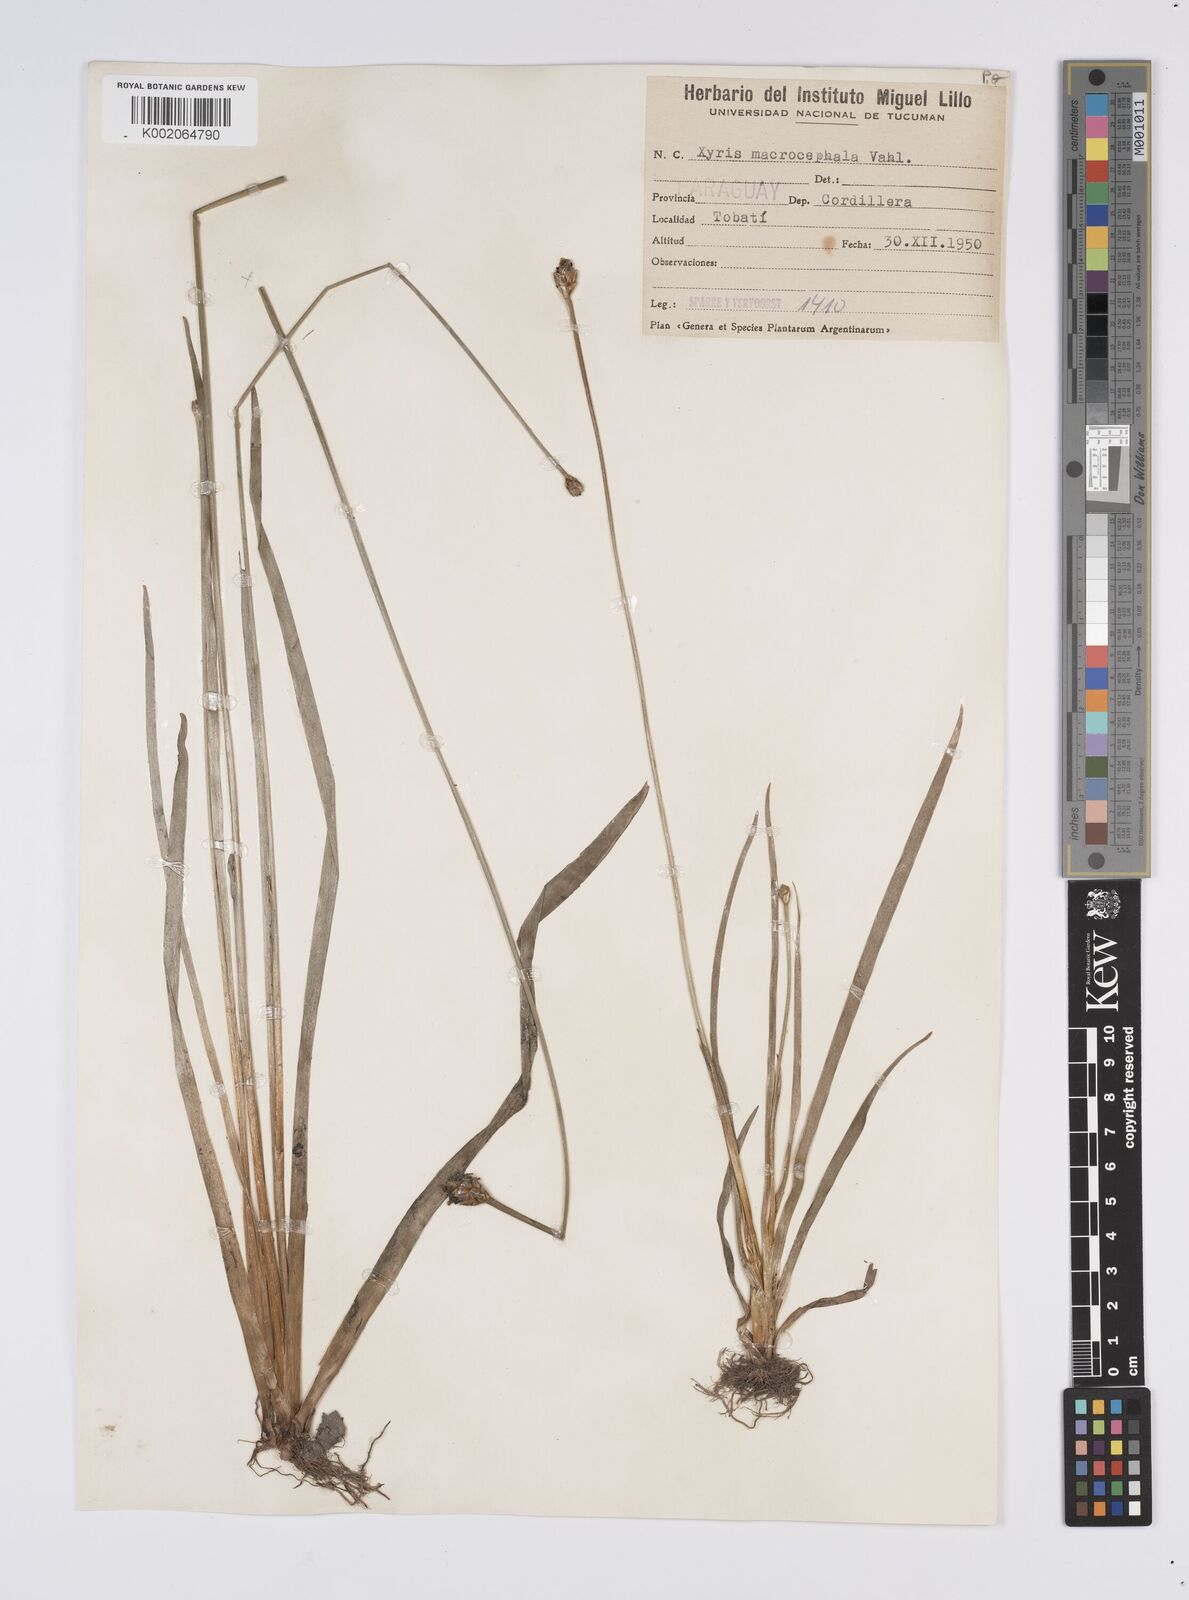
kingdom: Plantae
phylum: Tracheophyta
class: Liliopsida
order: Poales
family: Xyridaceae
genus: Xyris
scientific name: Xyris jupicai
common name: Richard's yelloweyed grass
